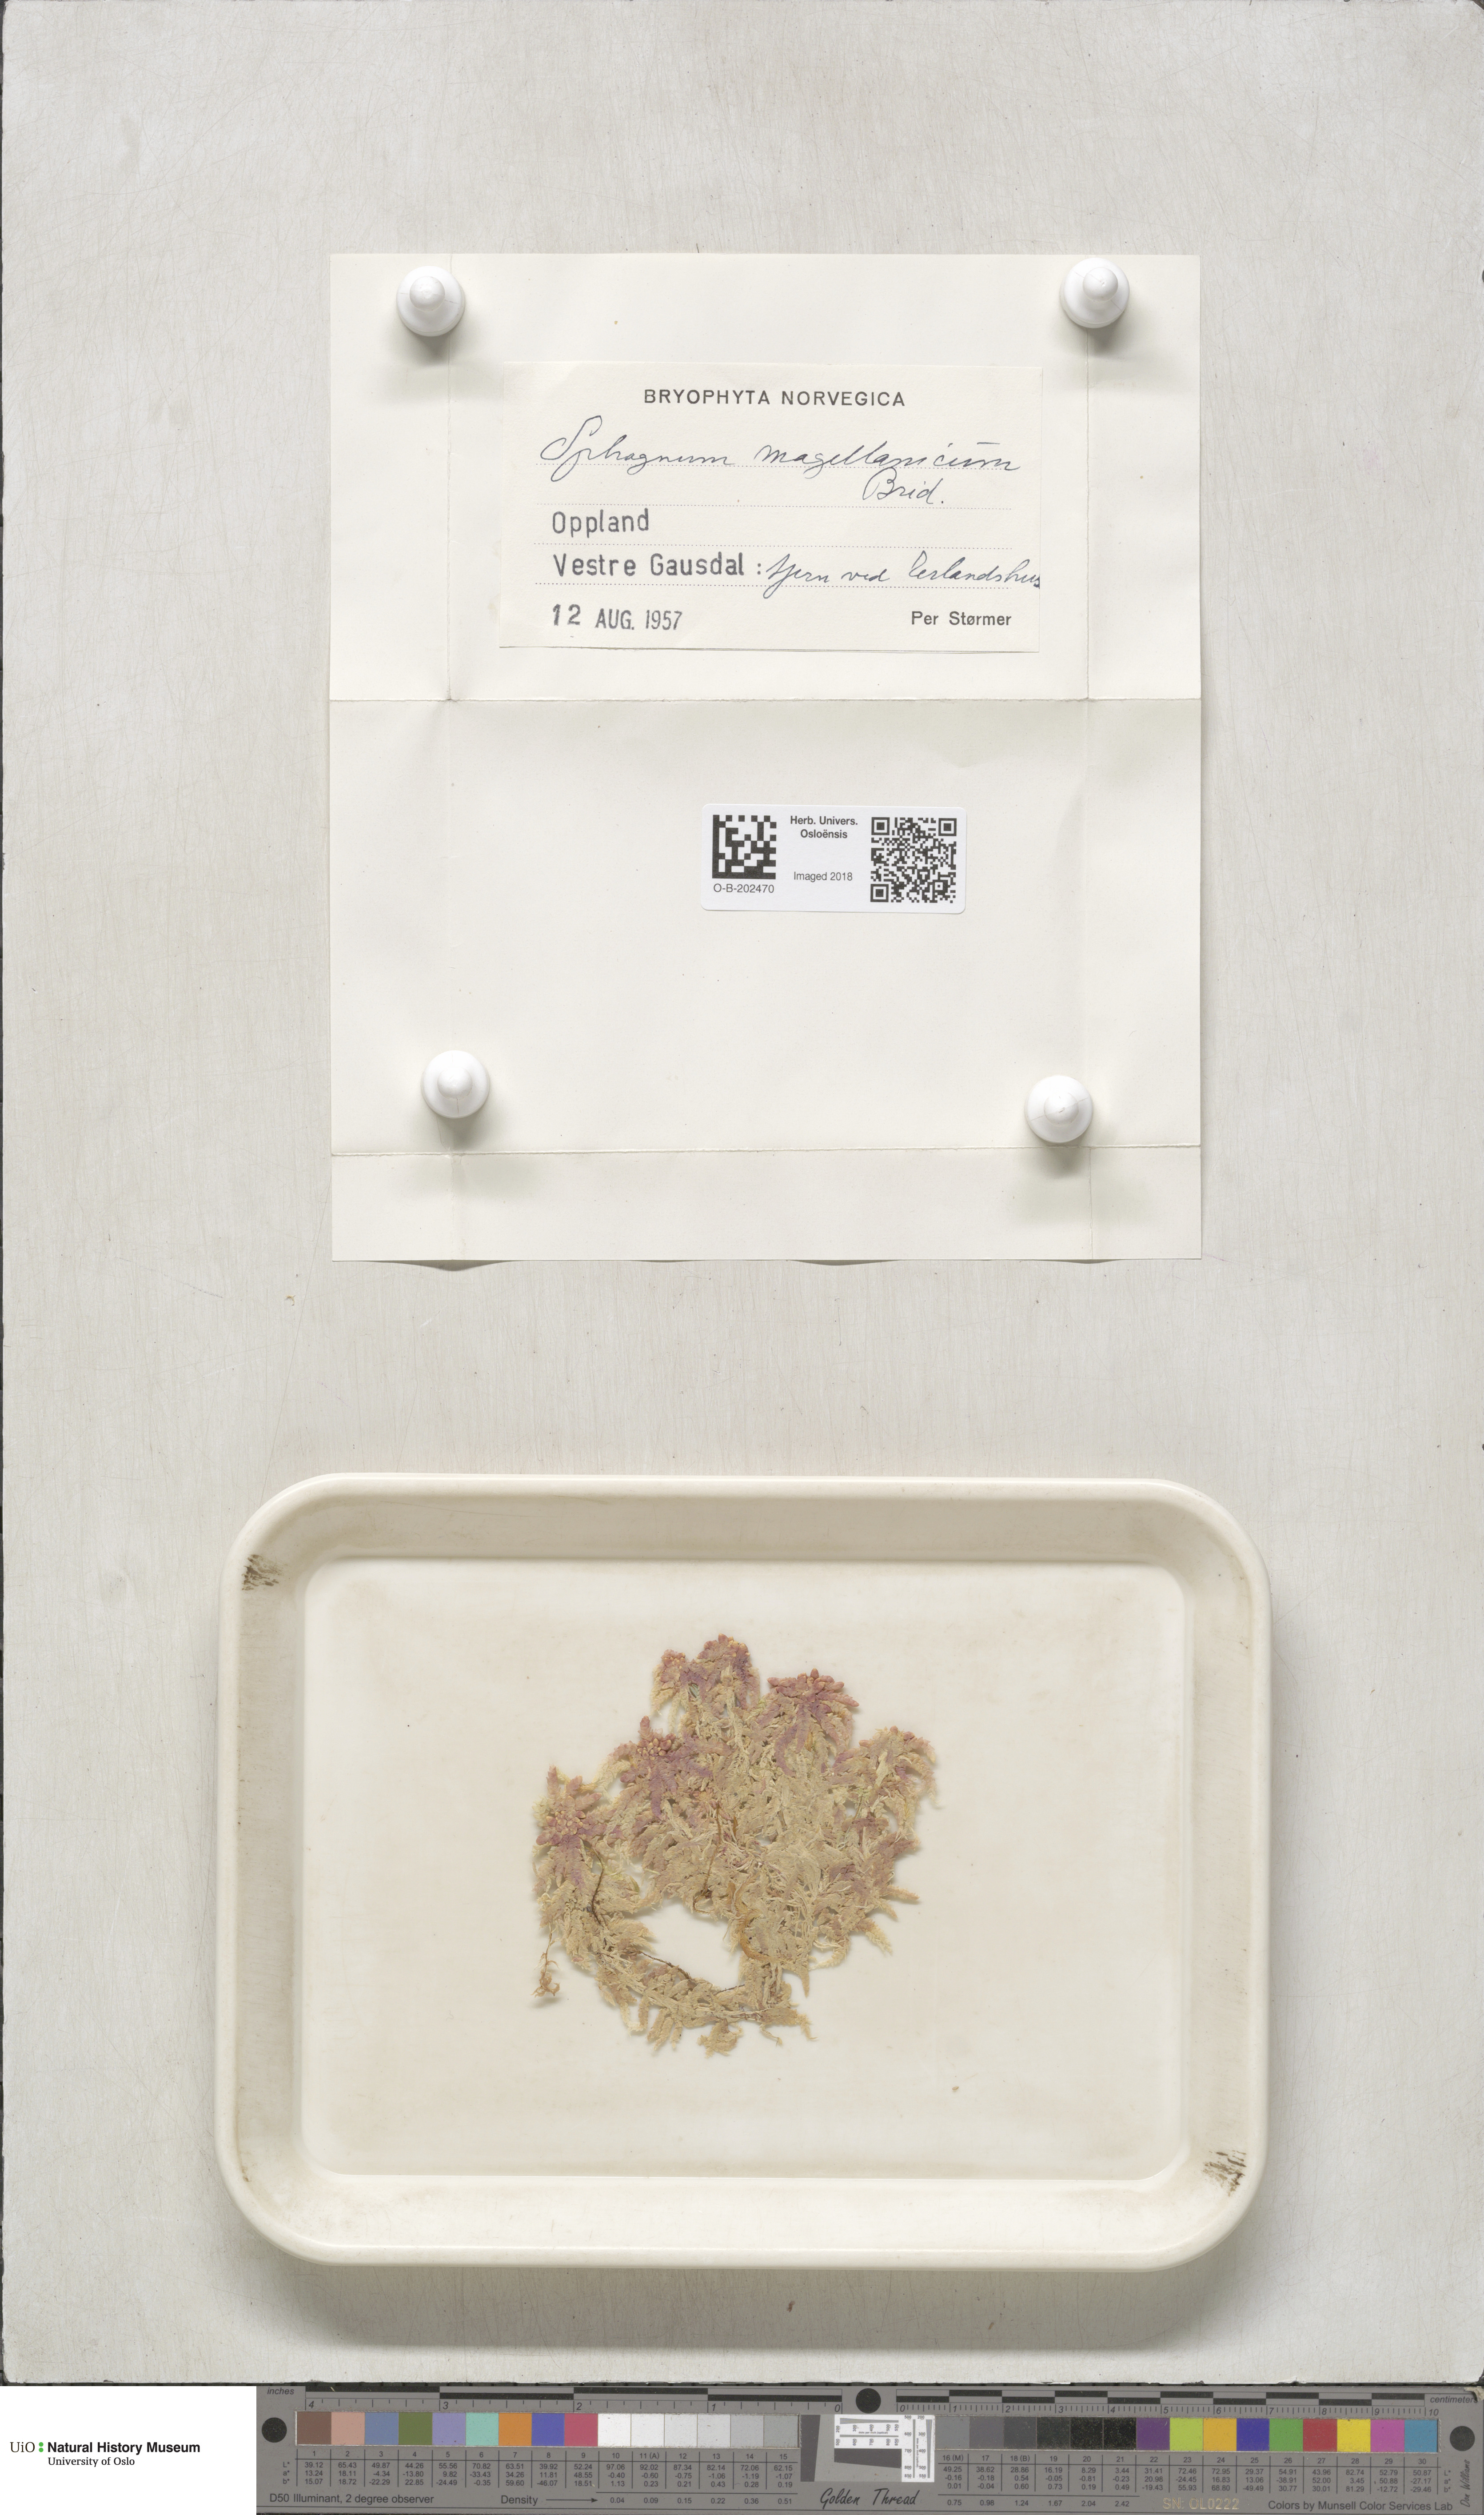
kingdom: Plantae
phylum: Bryophyta
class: Sphagnopsida
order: Sphagnales
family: Sphagnaceae
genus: Sphagnum
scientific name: Sphagnum magellanicum
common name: Magellan's peat moss
